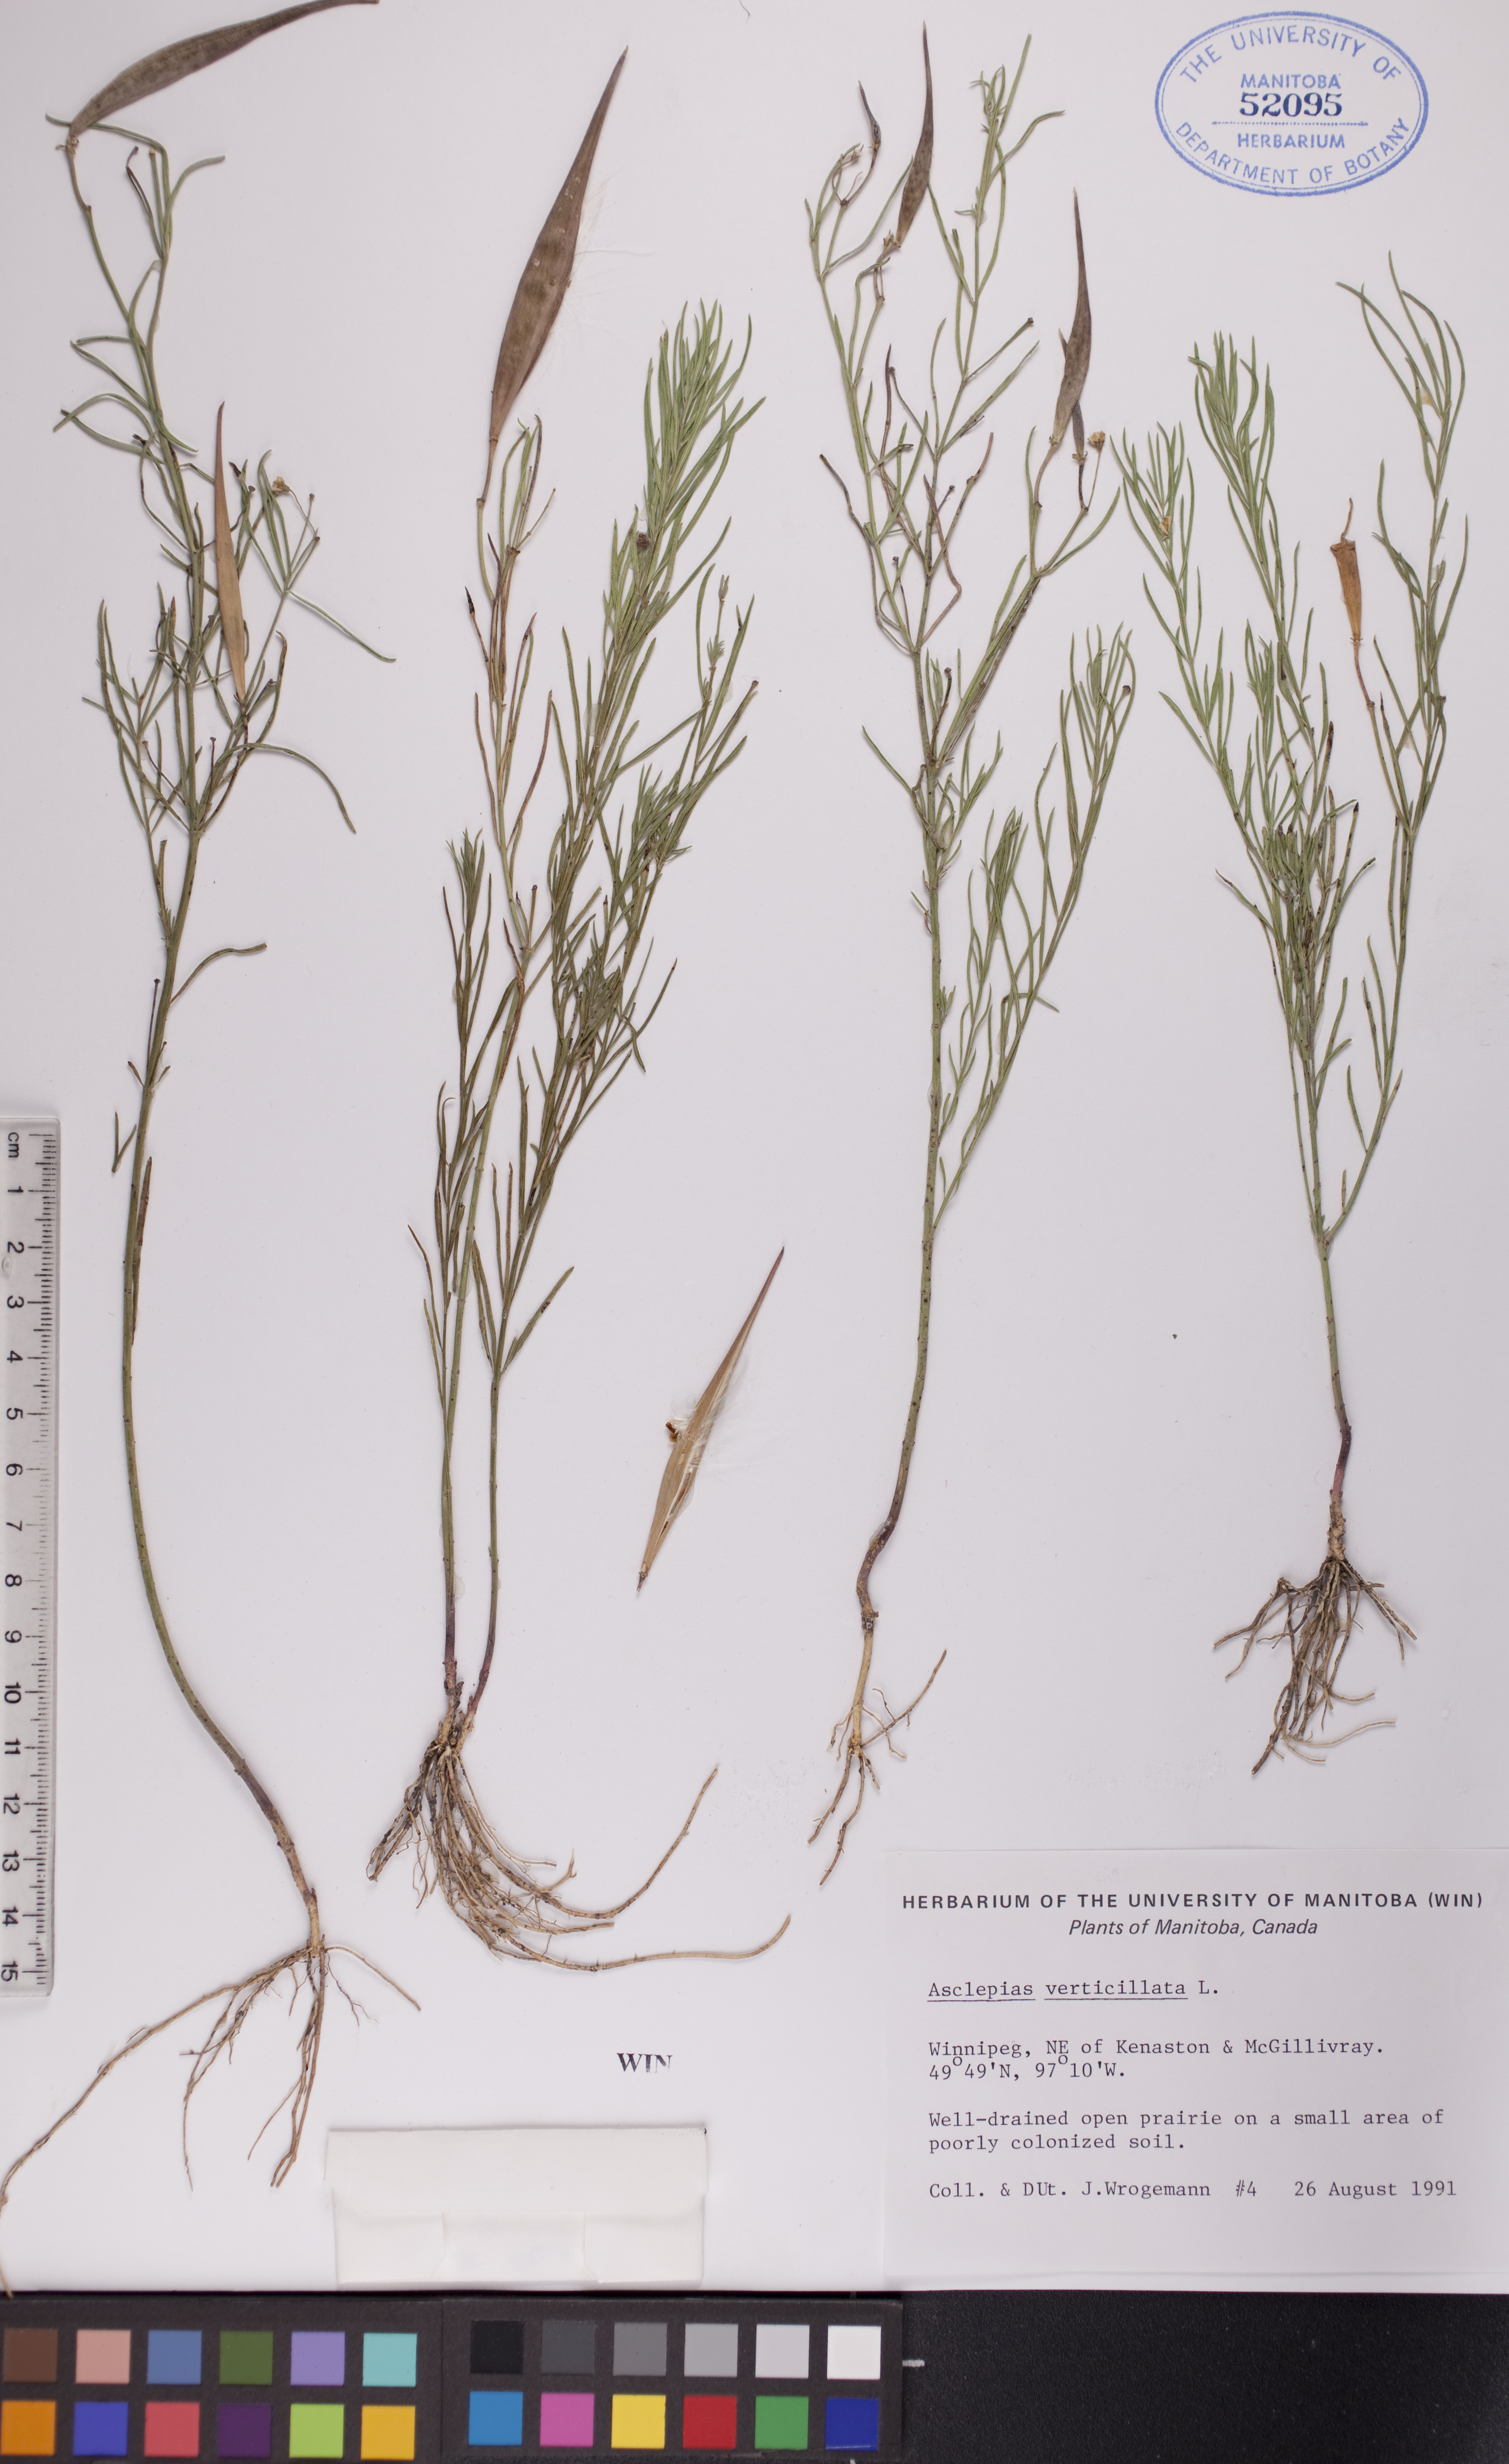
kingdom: Plantae
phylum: Tracheophyta
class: Magnoliopsida
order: Gentianales
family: Apocynaceae
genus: Asclepias
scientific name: Asclepias verticillata
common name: Eastern whorled milkweed
